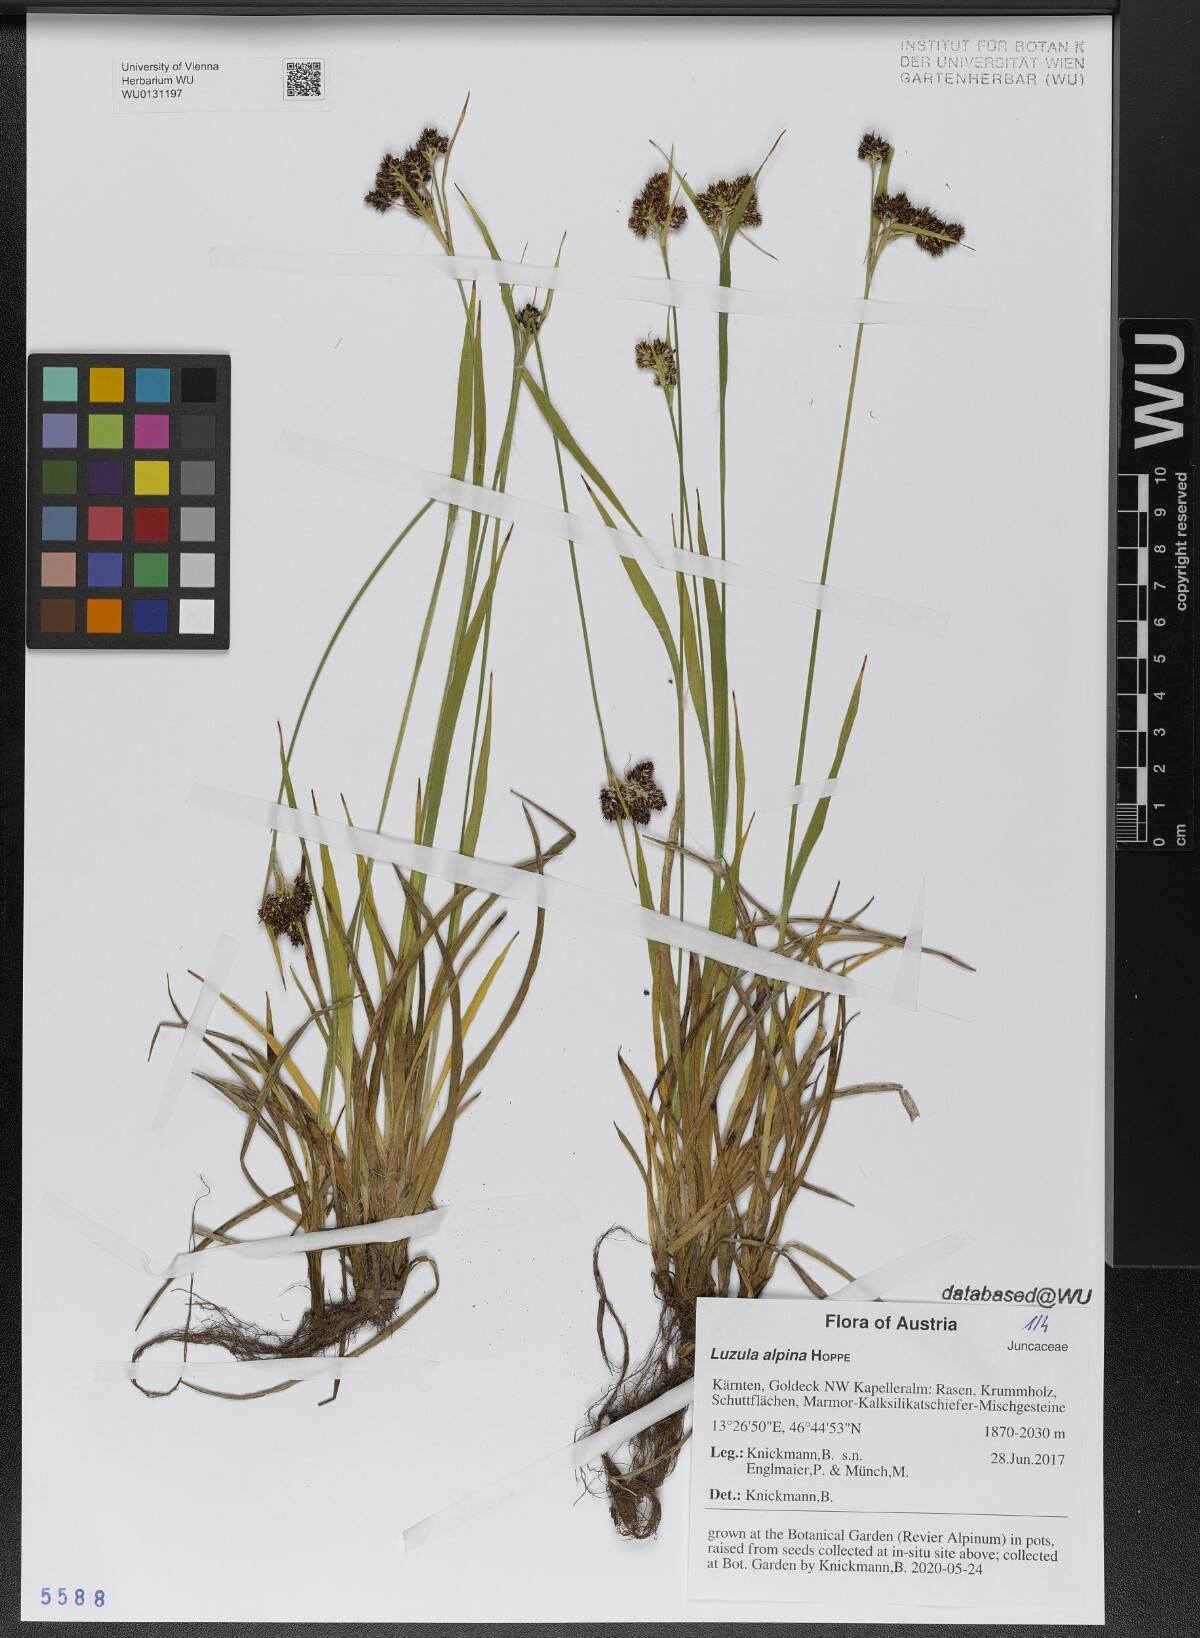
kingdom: Plantae
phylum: Tracheophyta
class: Liliopsida
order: Poales
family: Juncaceae
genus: Luzula
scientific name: Luzula alpina
